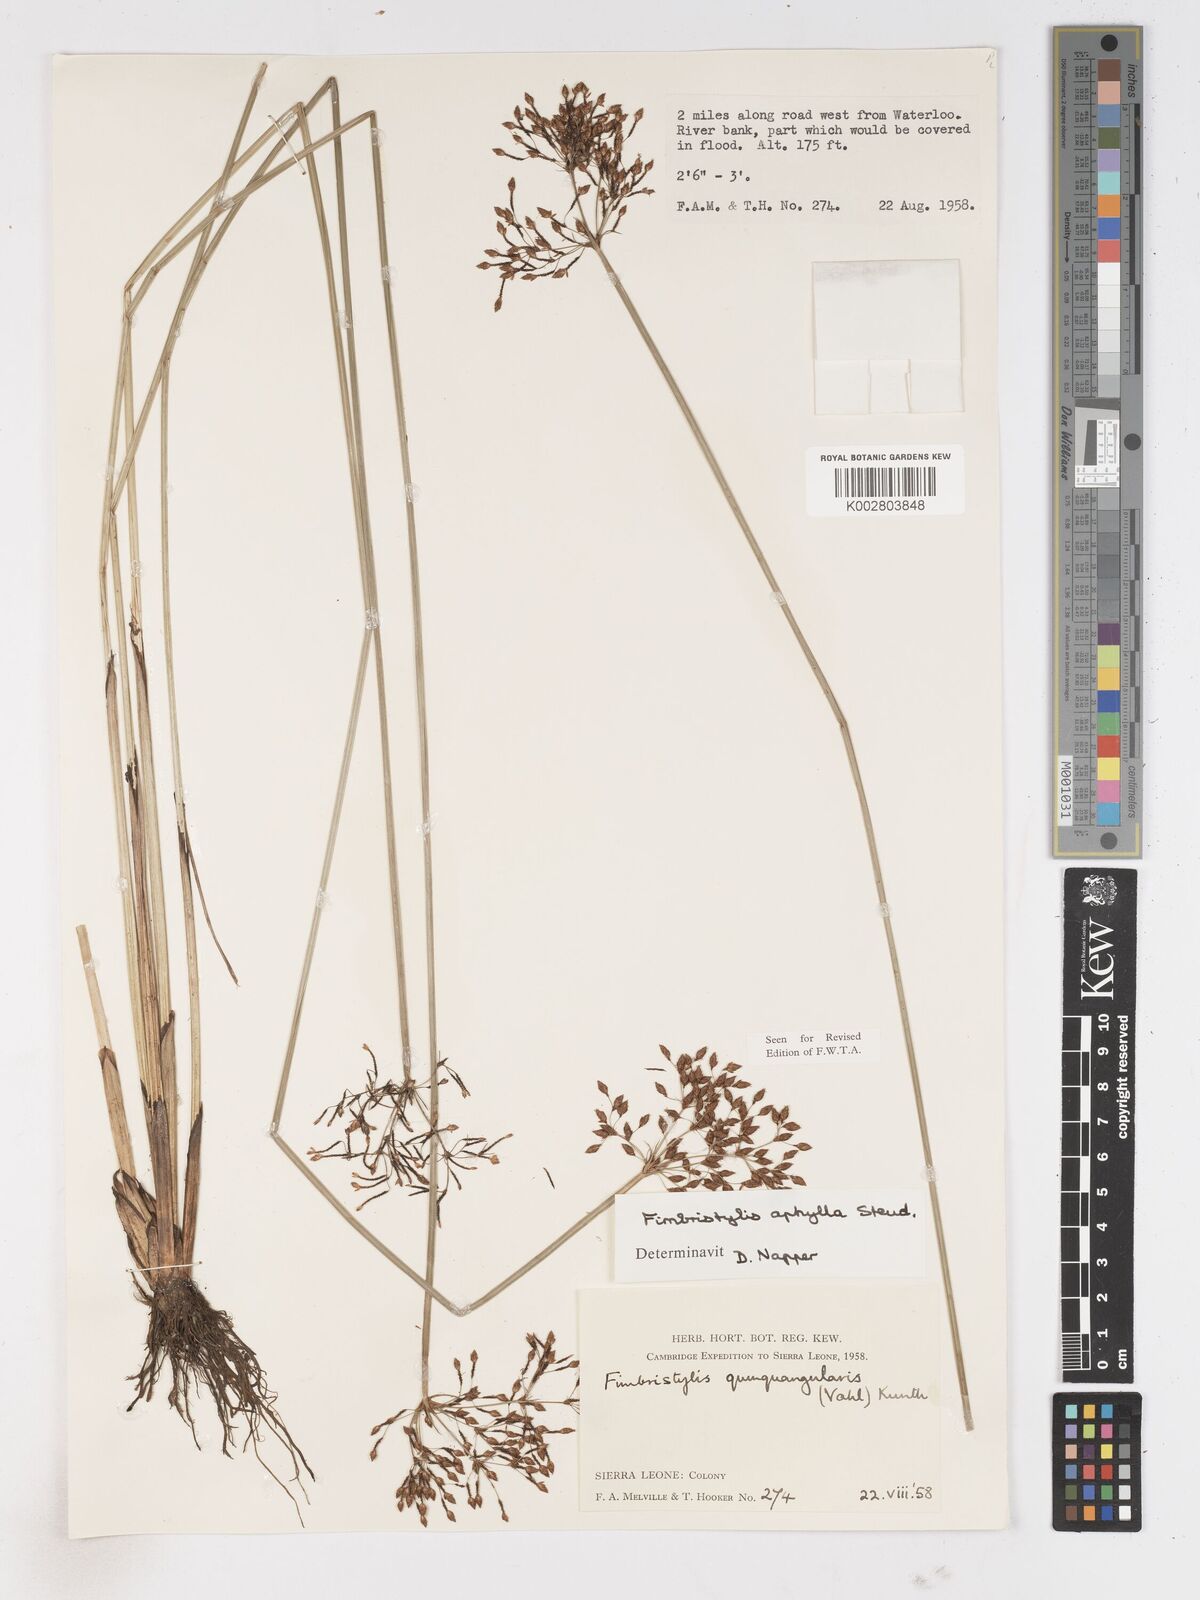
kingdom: Plantae
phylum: Tracheophyta
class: Liliopsida
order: Poales
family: Cyperaceae
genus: Fimbristylis
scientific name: Fimbristylis aphylla
